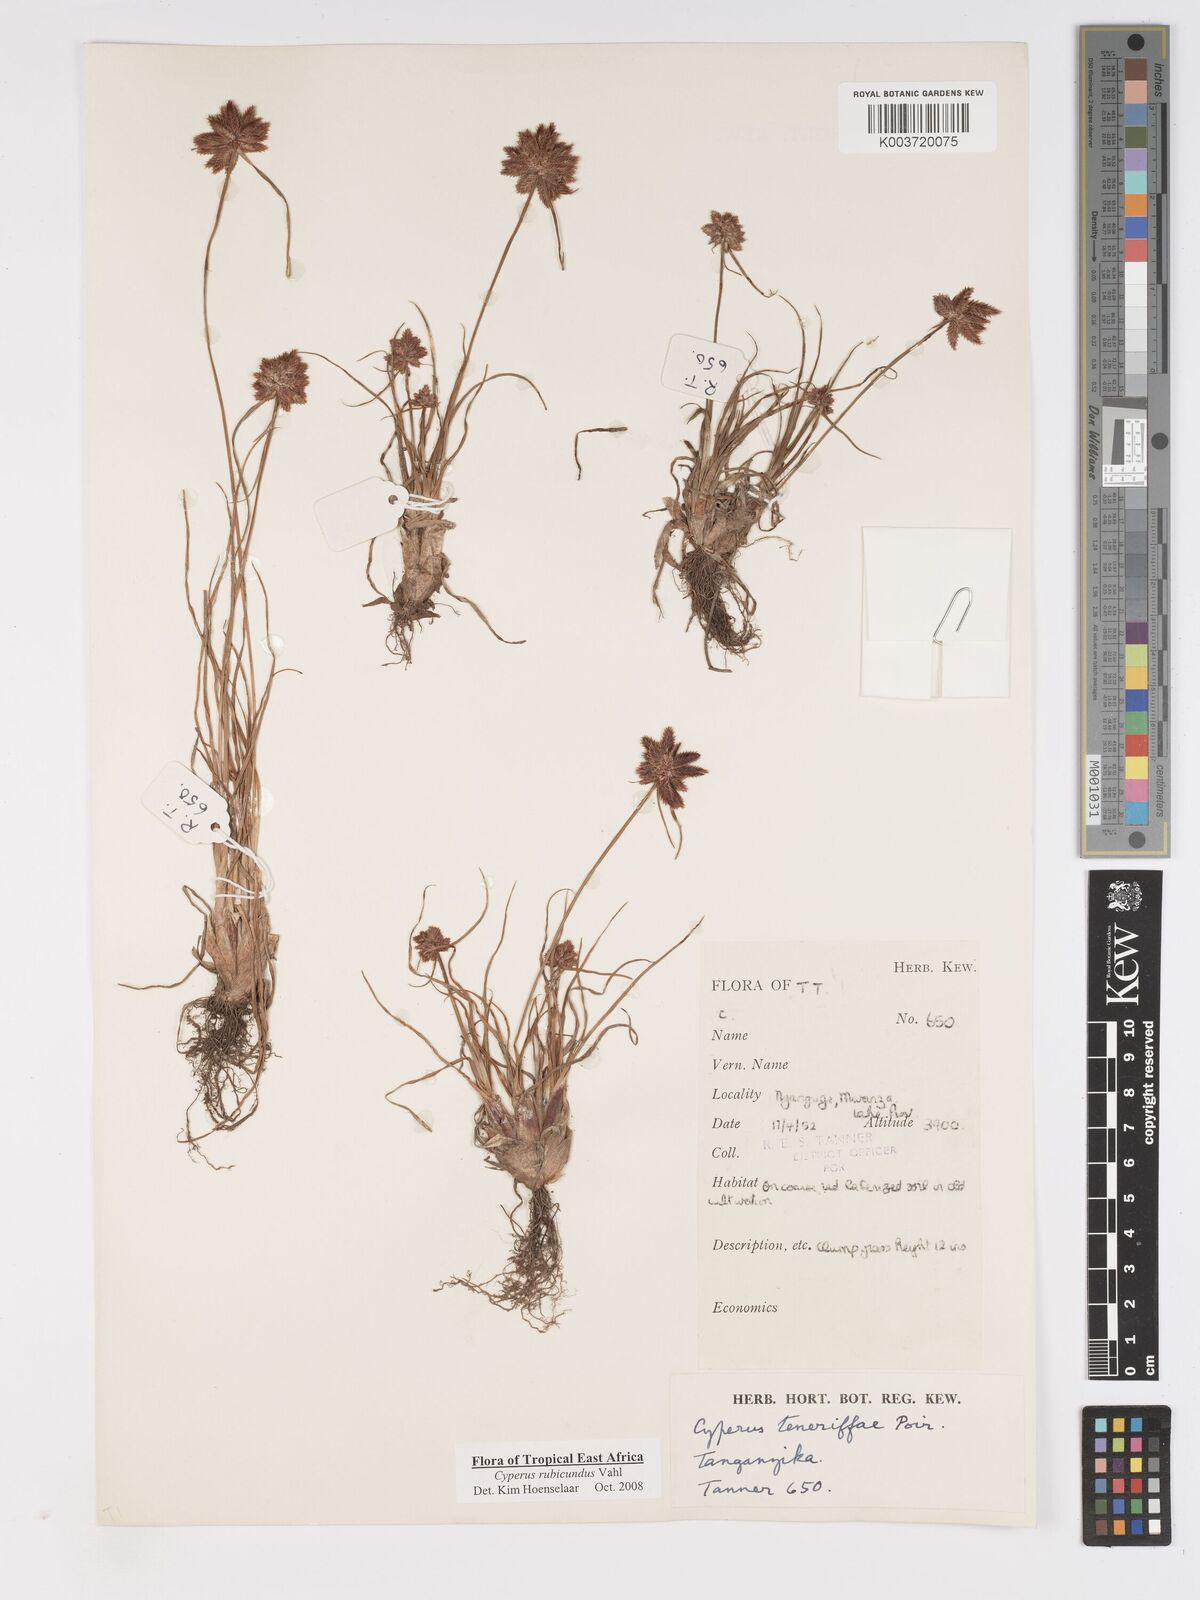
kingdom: Plantae
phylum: Tracheophyta
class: Liliopsida
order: Poales
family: Cyperaceae
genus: Cyperus
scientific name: Cyperus rubicundus
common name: Coco-grass
